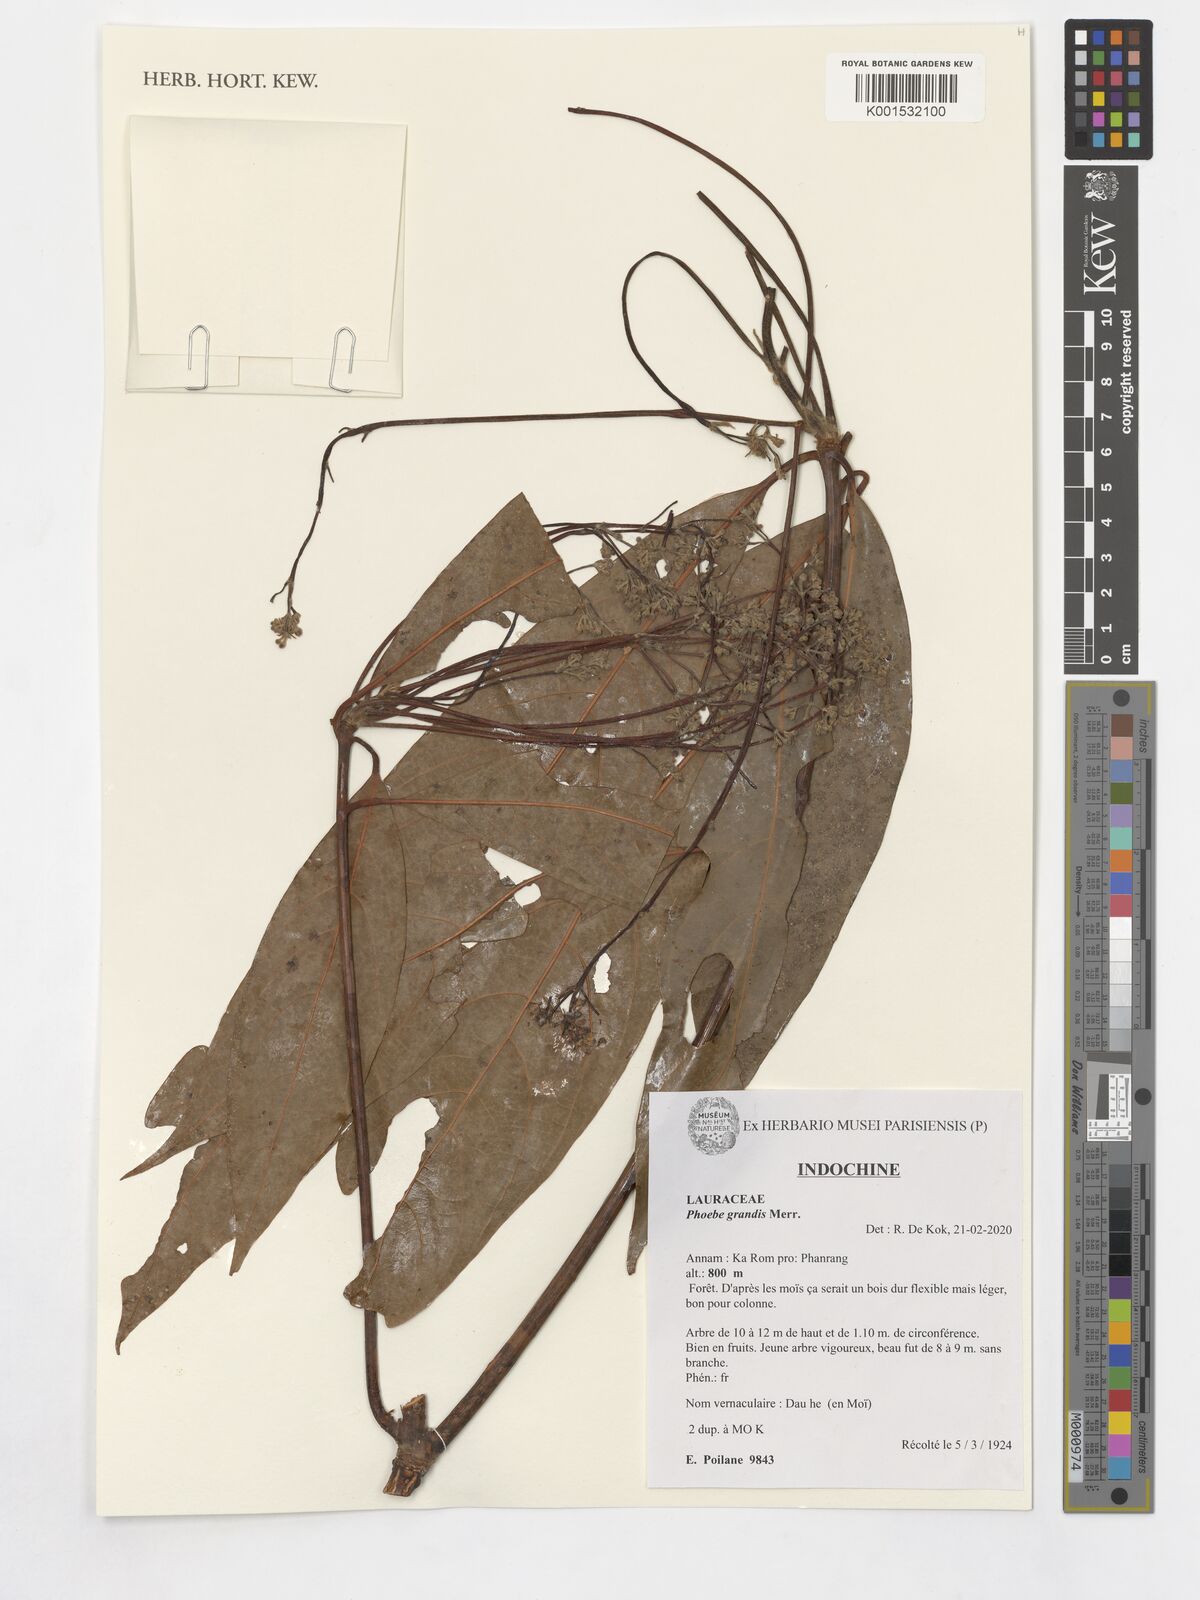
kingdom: Plantae
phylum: Tracheophyta
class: Magnoliopsida
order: Laurales
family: Lauraceae
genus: Phoebe
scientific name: Phoebe grandis
